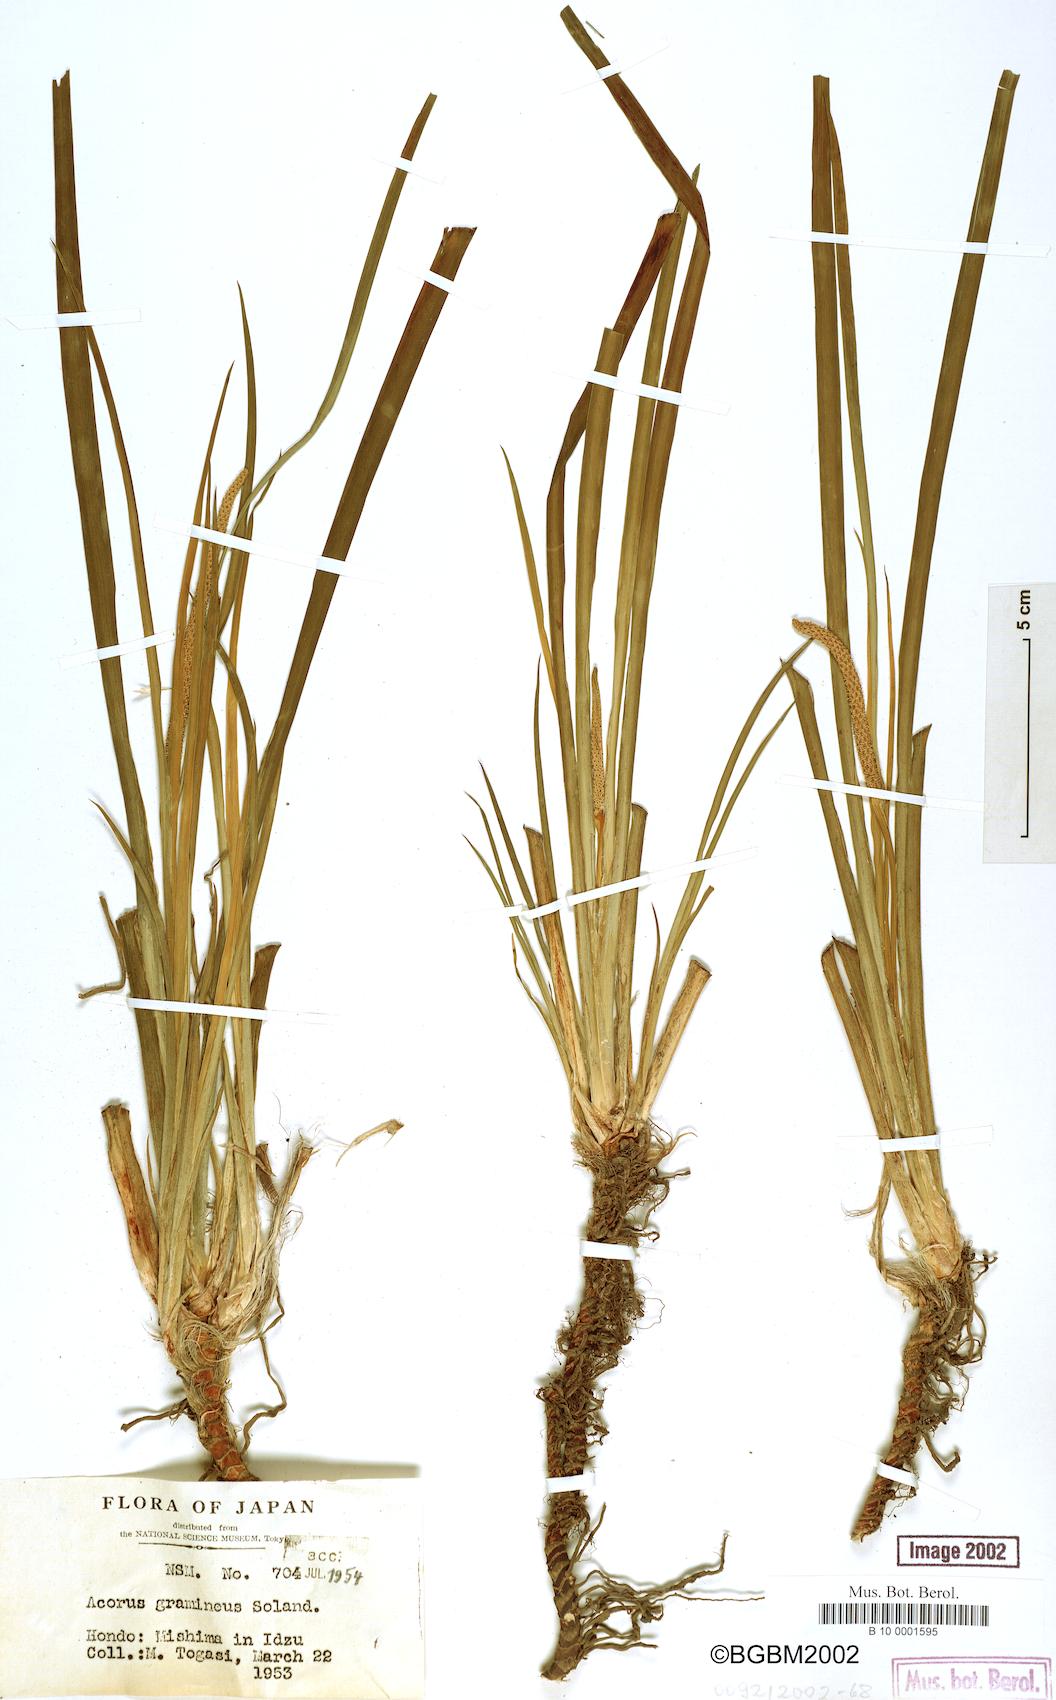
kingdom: Plantae
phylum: Tracheophyta
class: Liliopsida
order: Acorales
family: Acoraceae
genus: Acorus
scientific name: Acorus gramineus
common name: Slender sweet-flag
